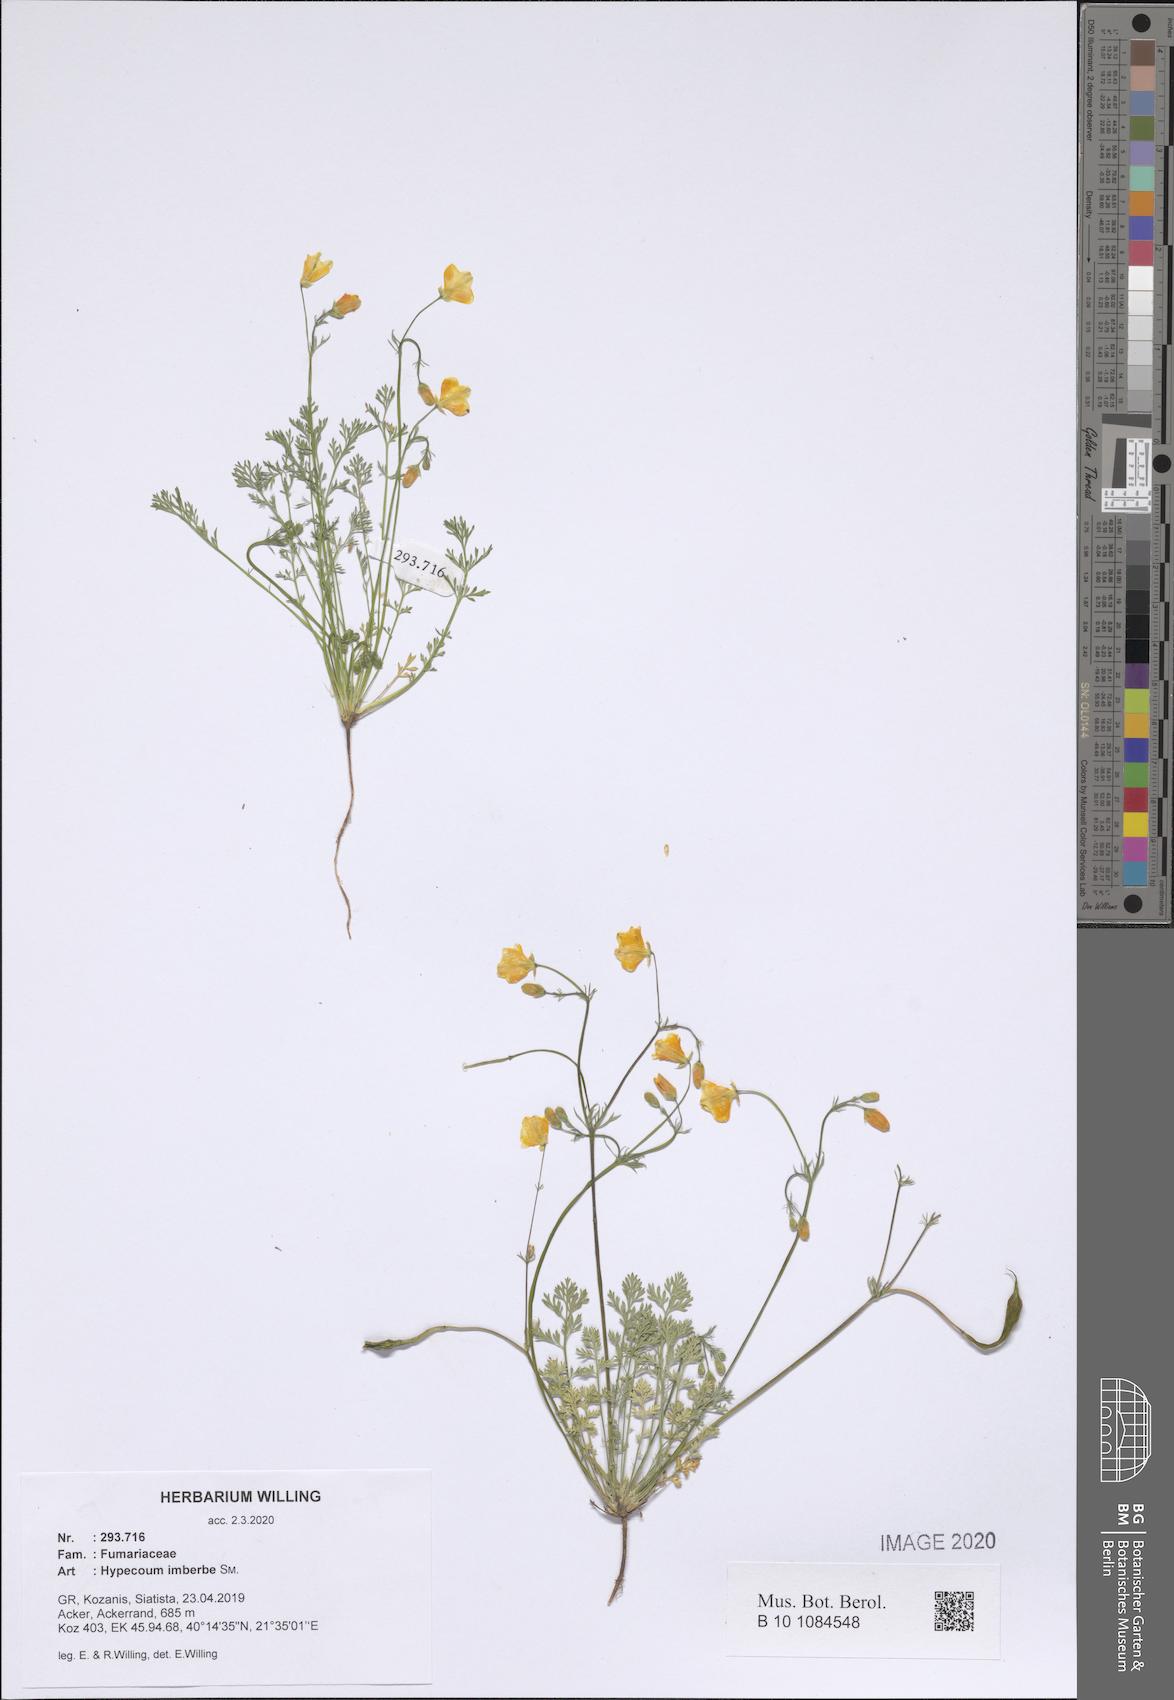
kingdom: Plantae
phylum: Tracheophyta
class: Magnoliopsida
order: Ranunculales
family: Papaveraceae
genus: Hypecoum
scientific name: Hypecoum imberbe
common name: Sicklefruit hypecoum
